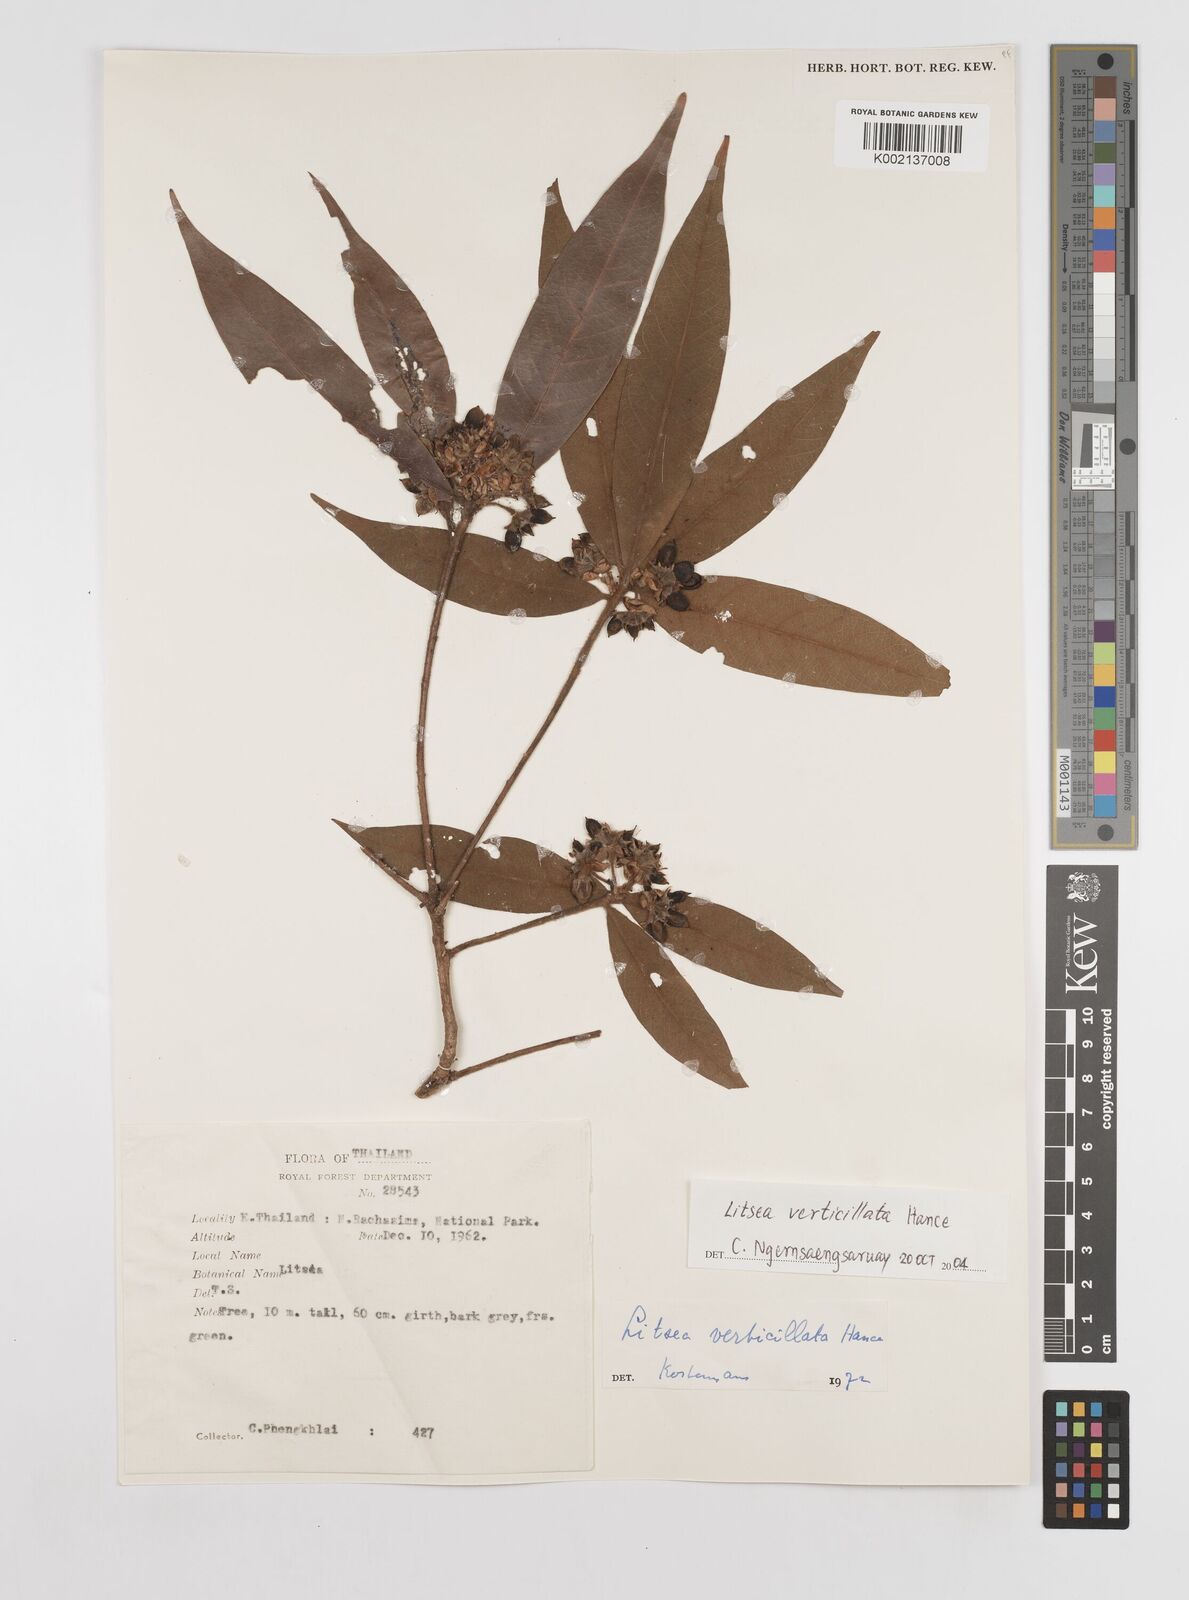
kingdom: Plantae
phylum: Tracheophyta
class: Magnoliopsida
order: Laurales
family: Lauraceae
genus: Litsea
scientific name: Litsea verticillata
